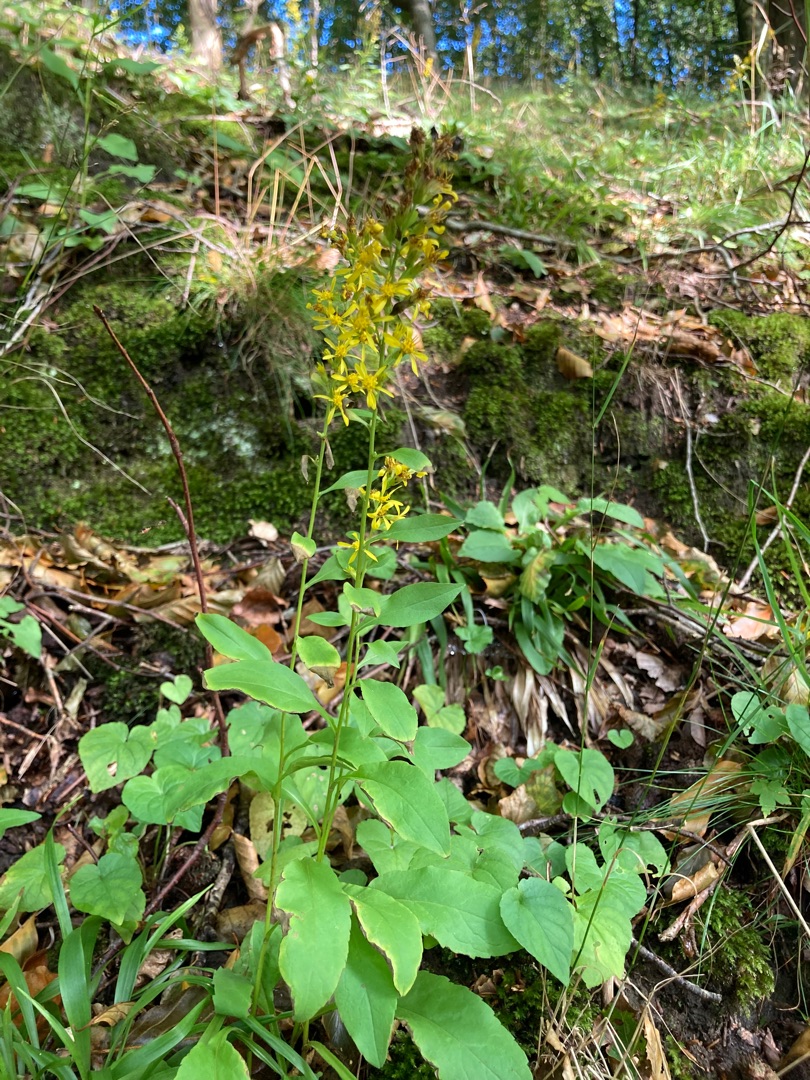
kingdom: Plantae
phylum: Tracheophyta
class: Magnoliopsida
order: Asterales
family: Asteraceae
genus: Solidago
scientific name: Solidago virgaurea
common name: Almindelig gyldenris
